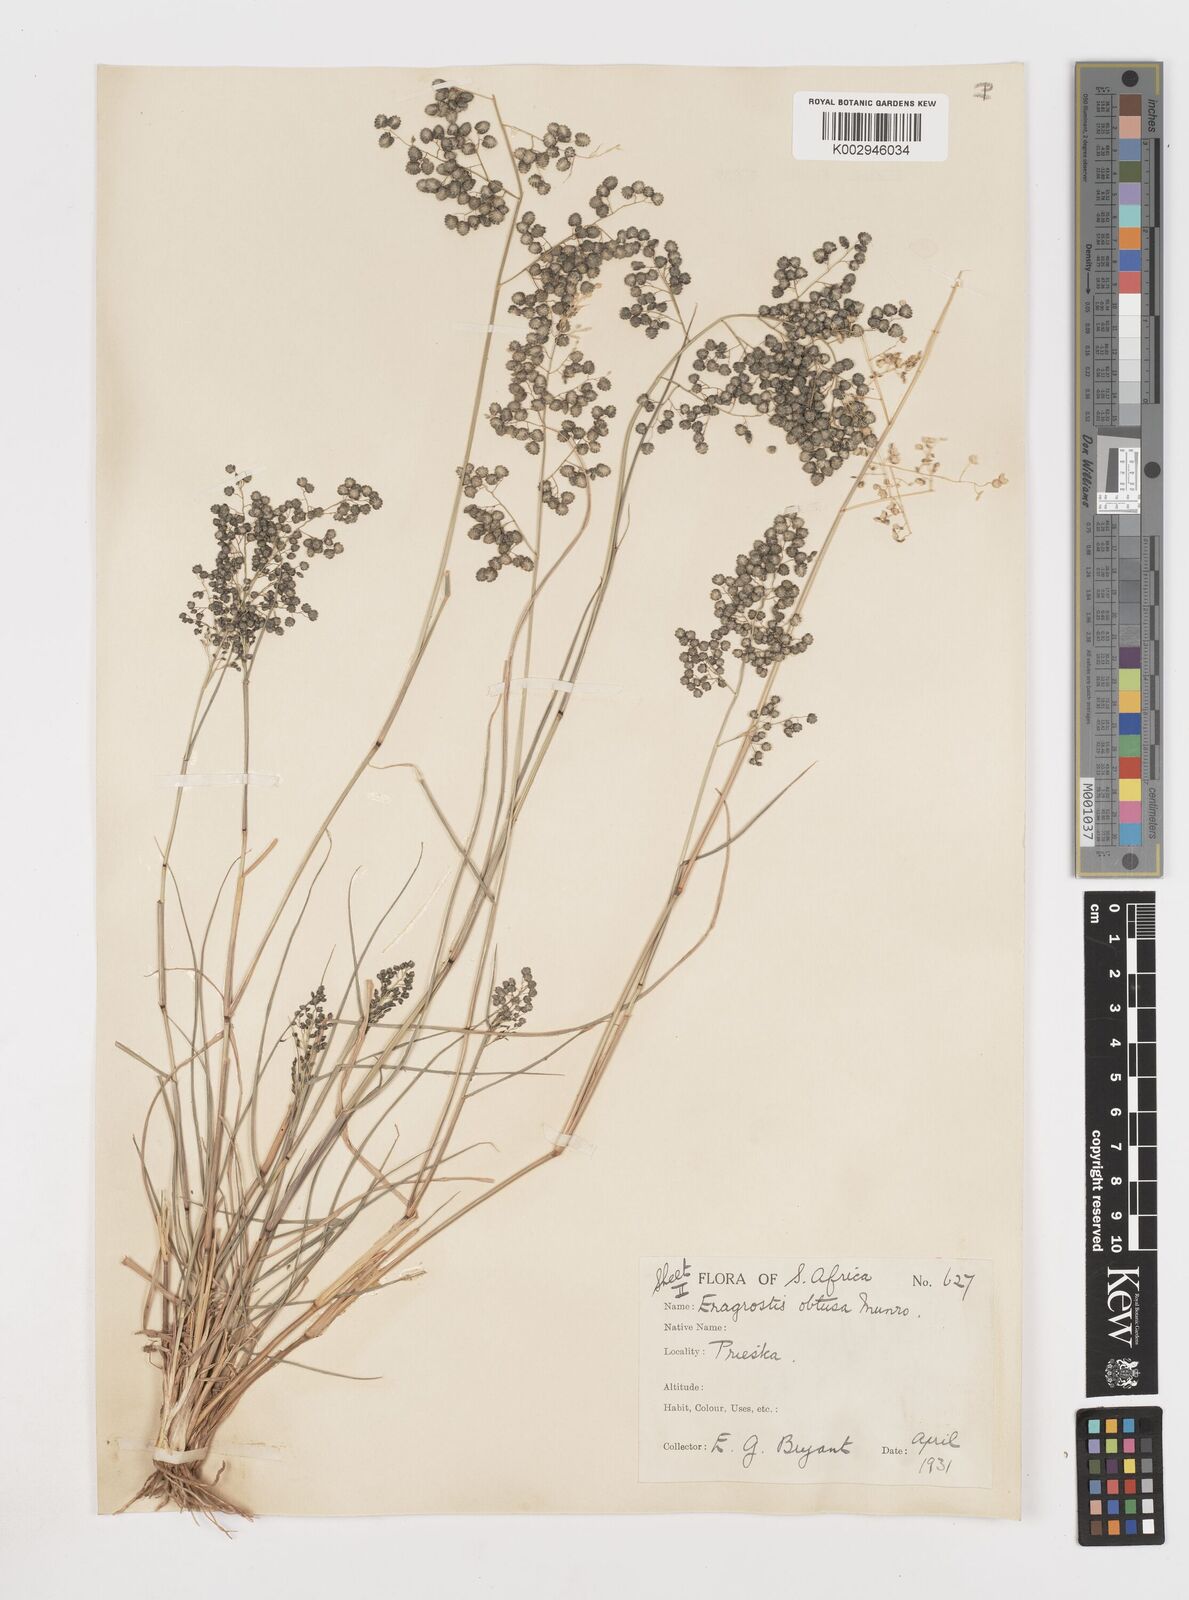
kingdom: Plantae
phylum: Tracheophyta
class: Liliopsida
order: Poales
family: Poaceae
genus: Eragrostis
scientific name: Eragrostis obtusa
